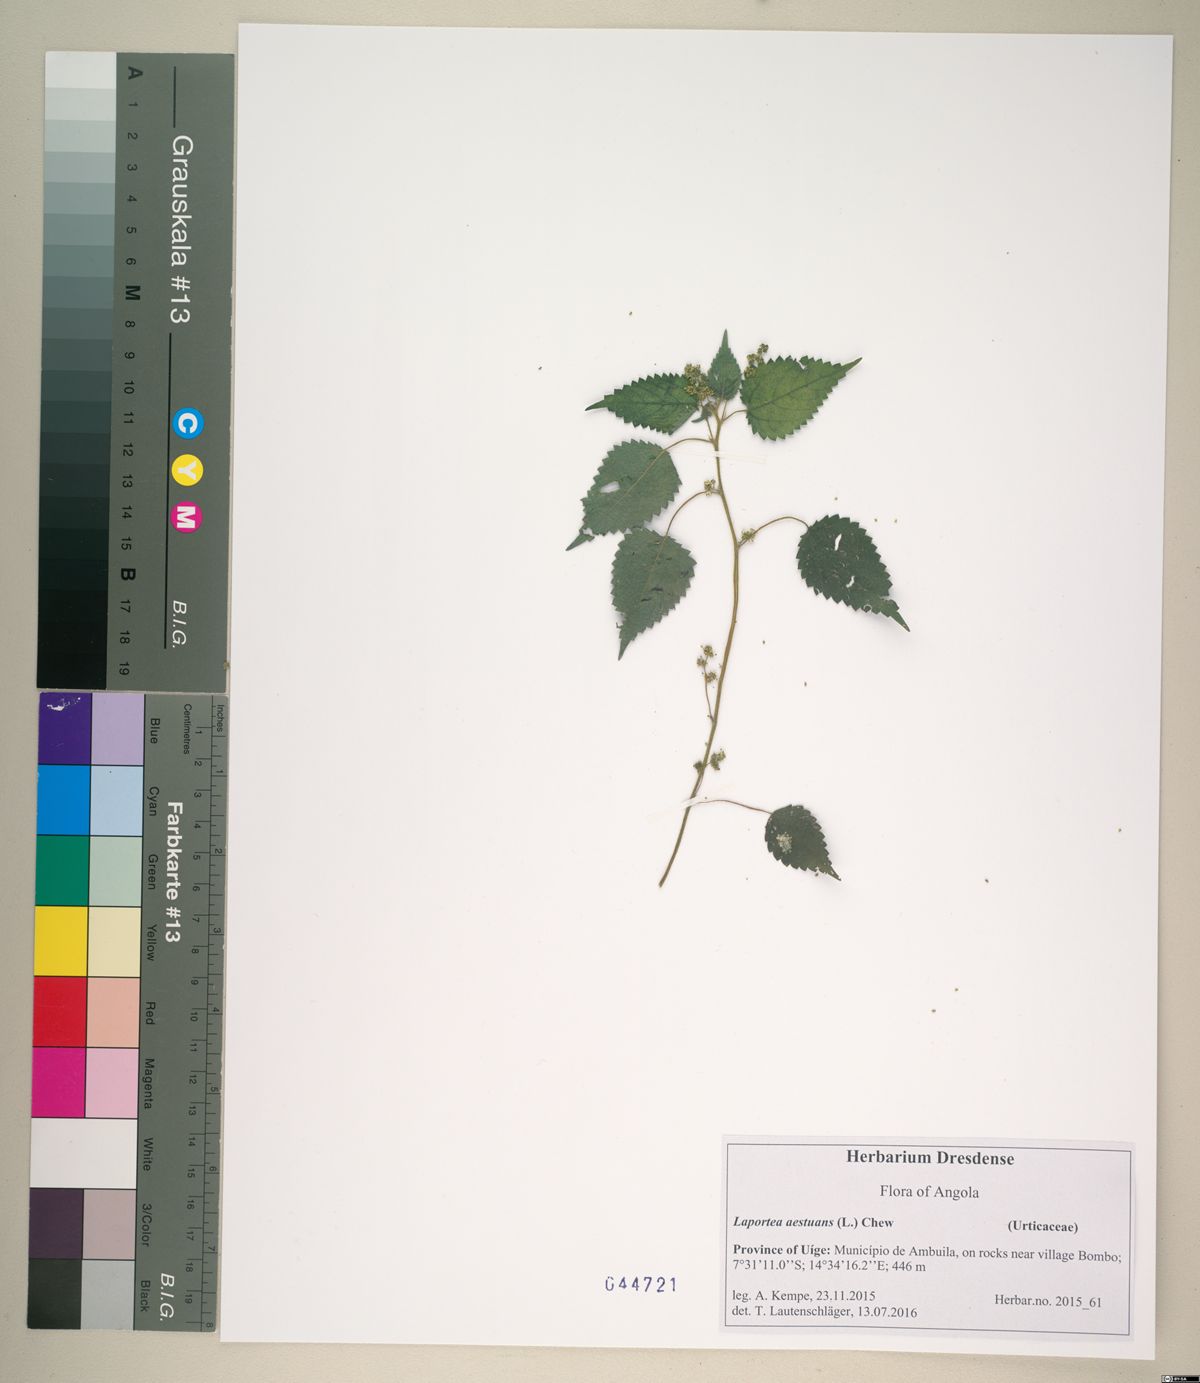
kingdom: Plantae
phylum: Tracheophyta
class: Magnoliopsida
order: Rosales
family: Urticaceae
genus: Laportea
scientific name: Laportea aestuans
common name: West indian woodnettle
